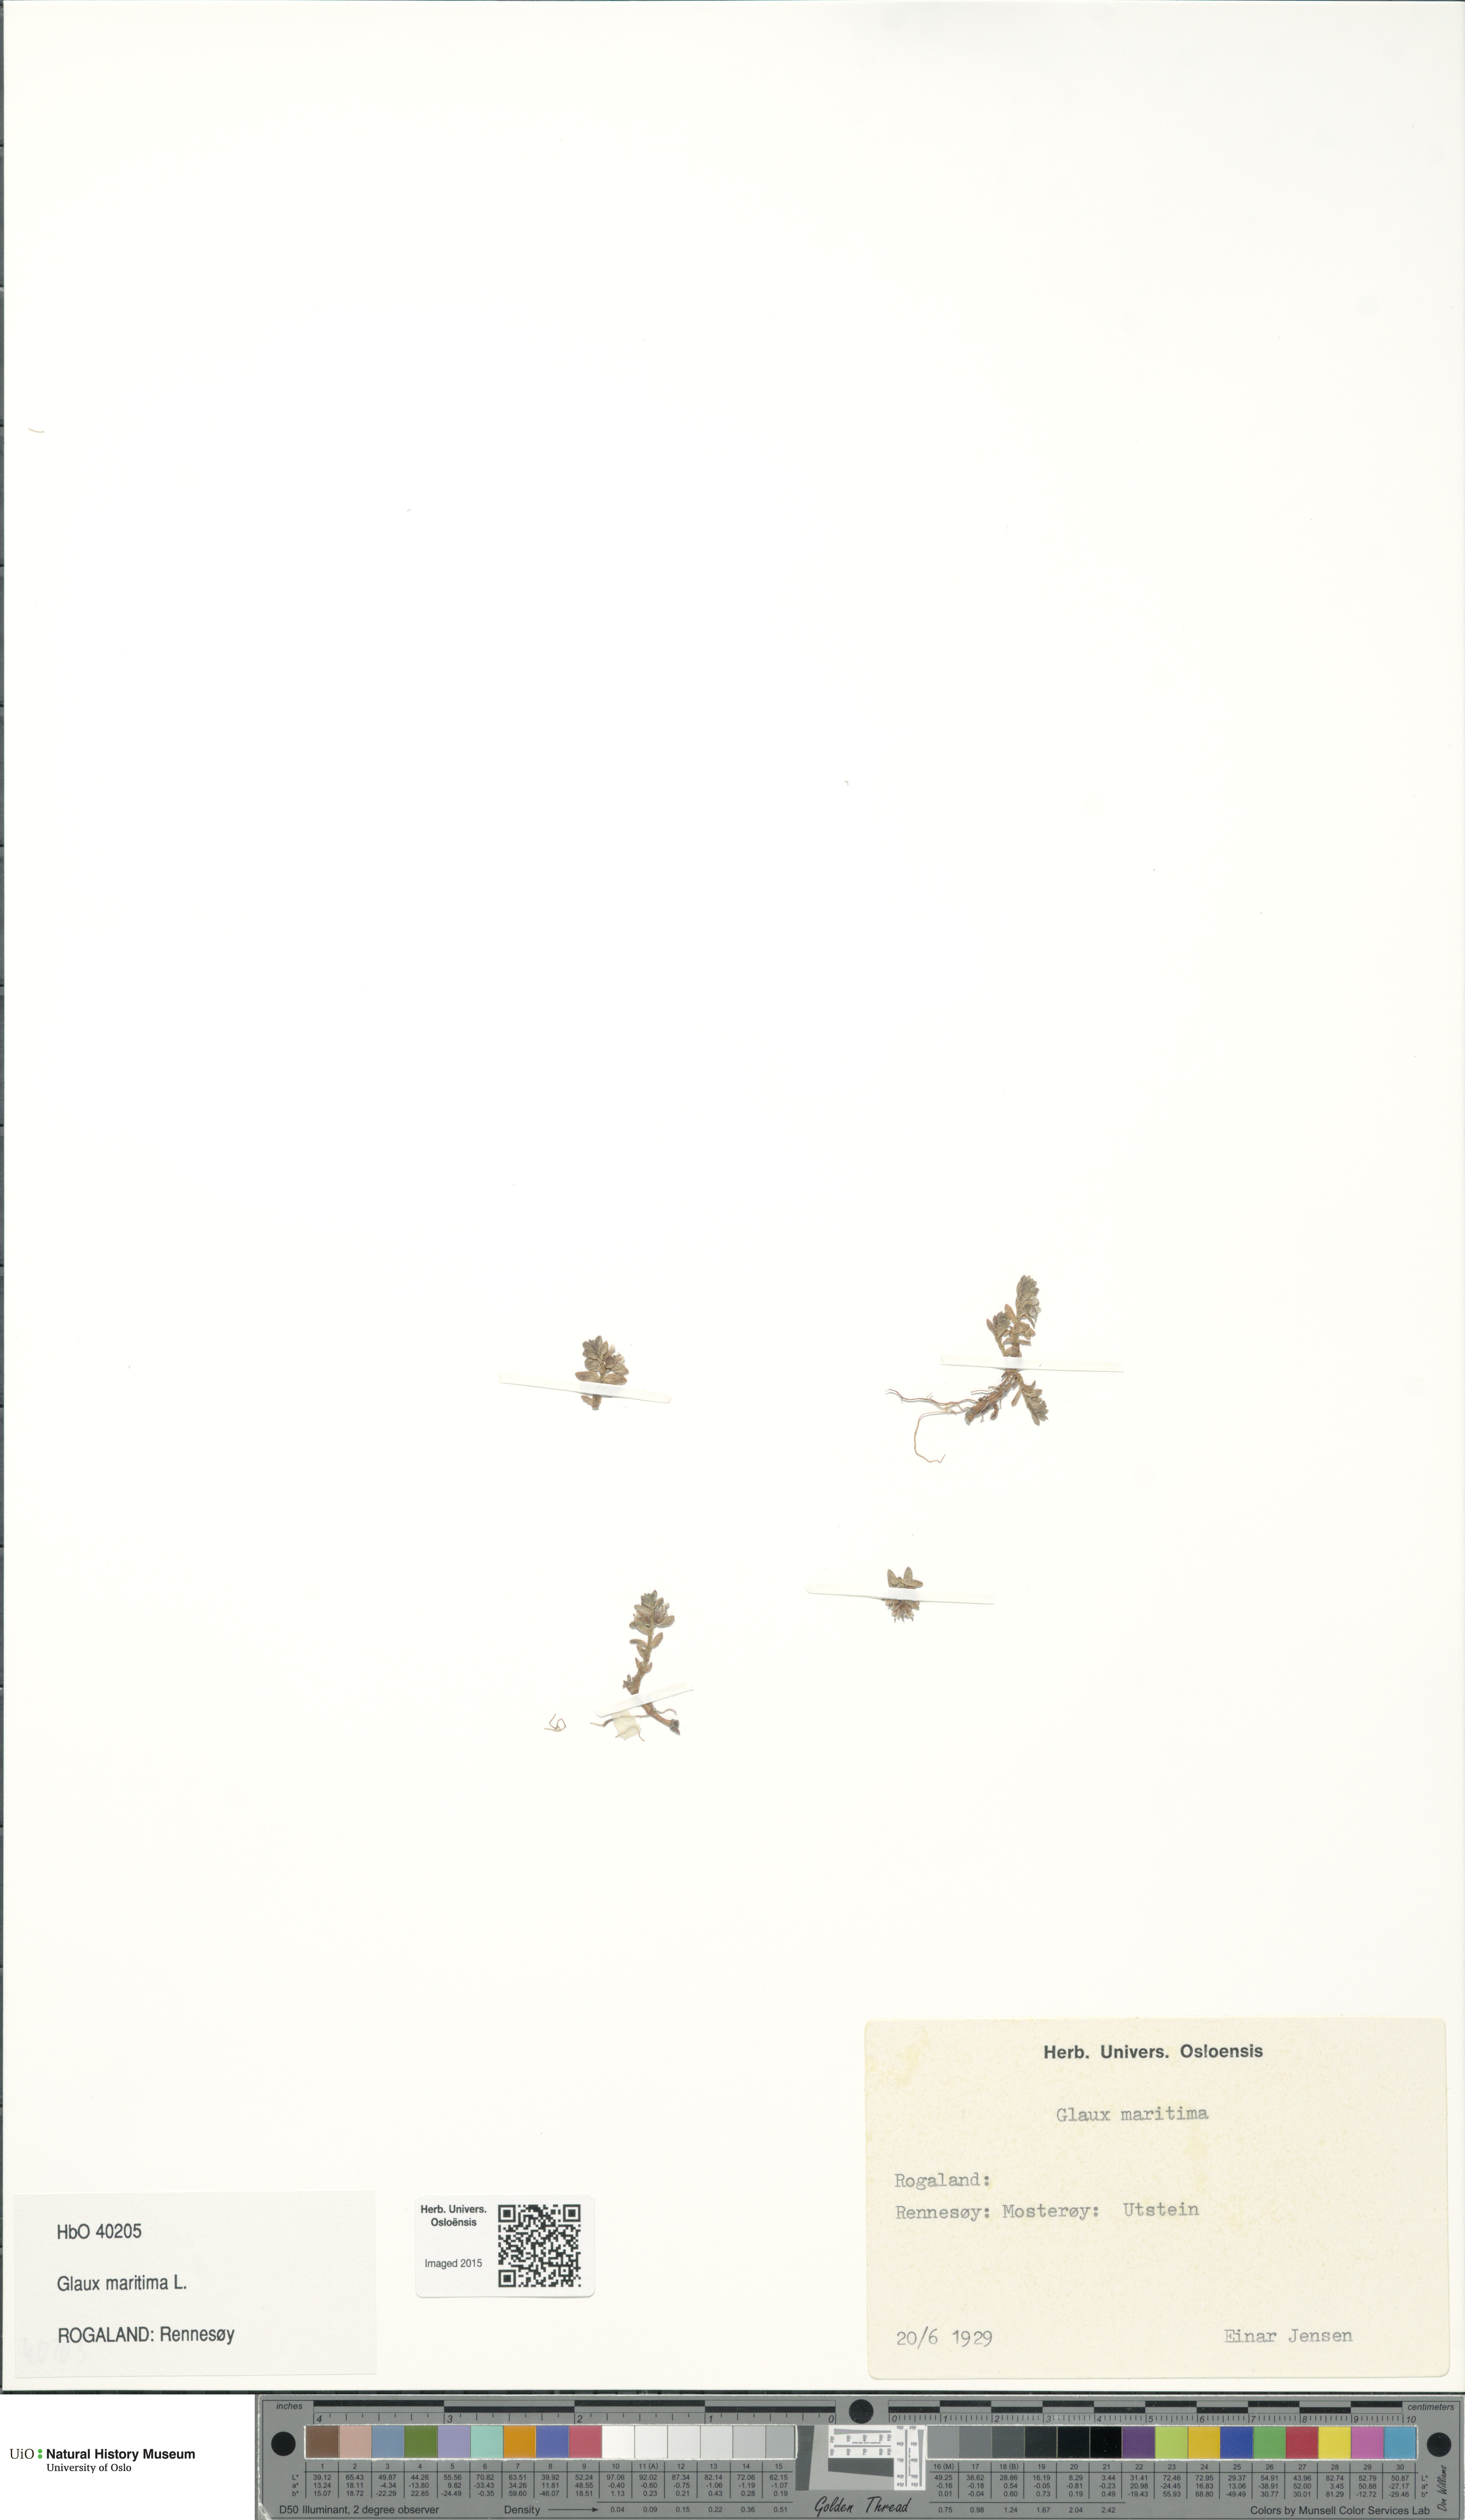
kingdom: Plantae
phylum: Tracheophyta
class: Magnoliopsida
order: Ericales
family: Primulaceae
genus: Lysimachia
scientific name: Lysimachia maritima
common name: Sea milkwort
